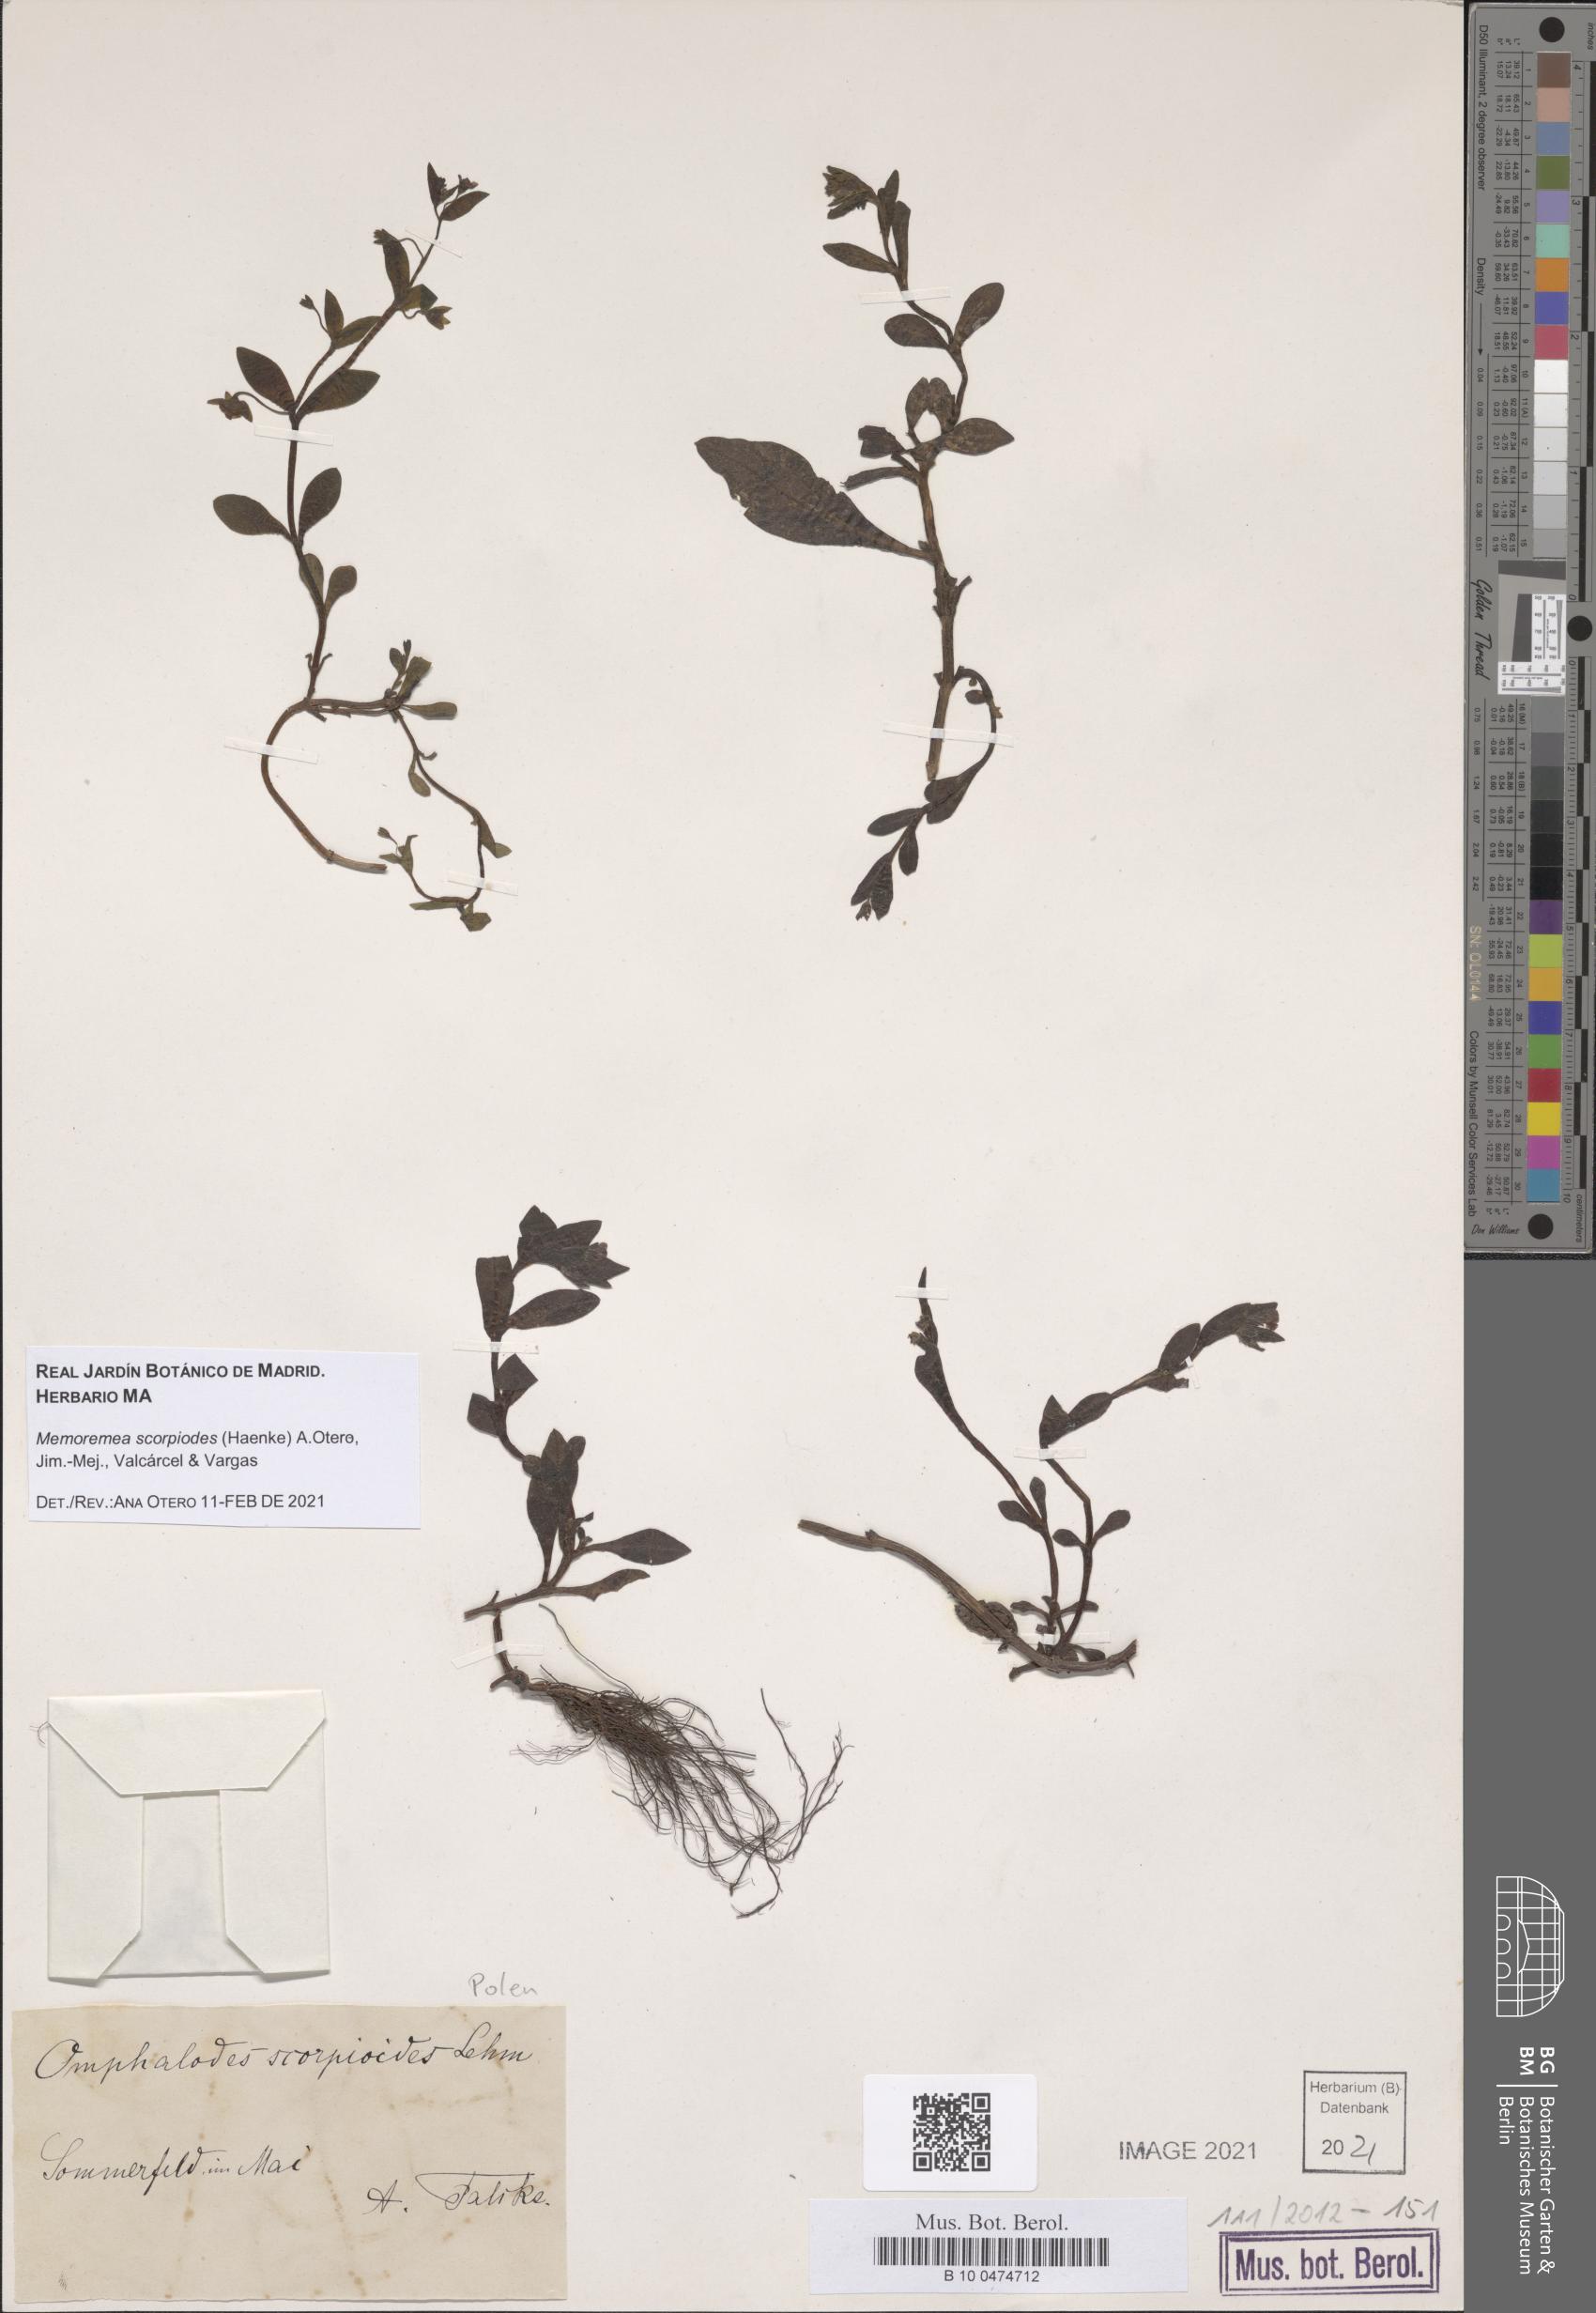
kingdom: Plantae
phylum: Tracheophyta
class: Magnoliopsida
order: Boraginales
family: Boraginaceae
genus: Memoremea
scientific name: Memoremea scorpioides
